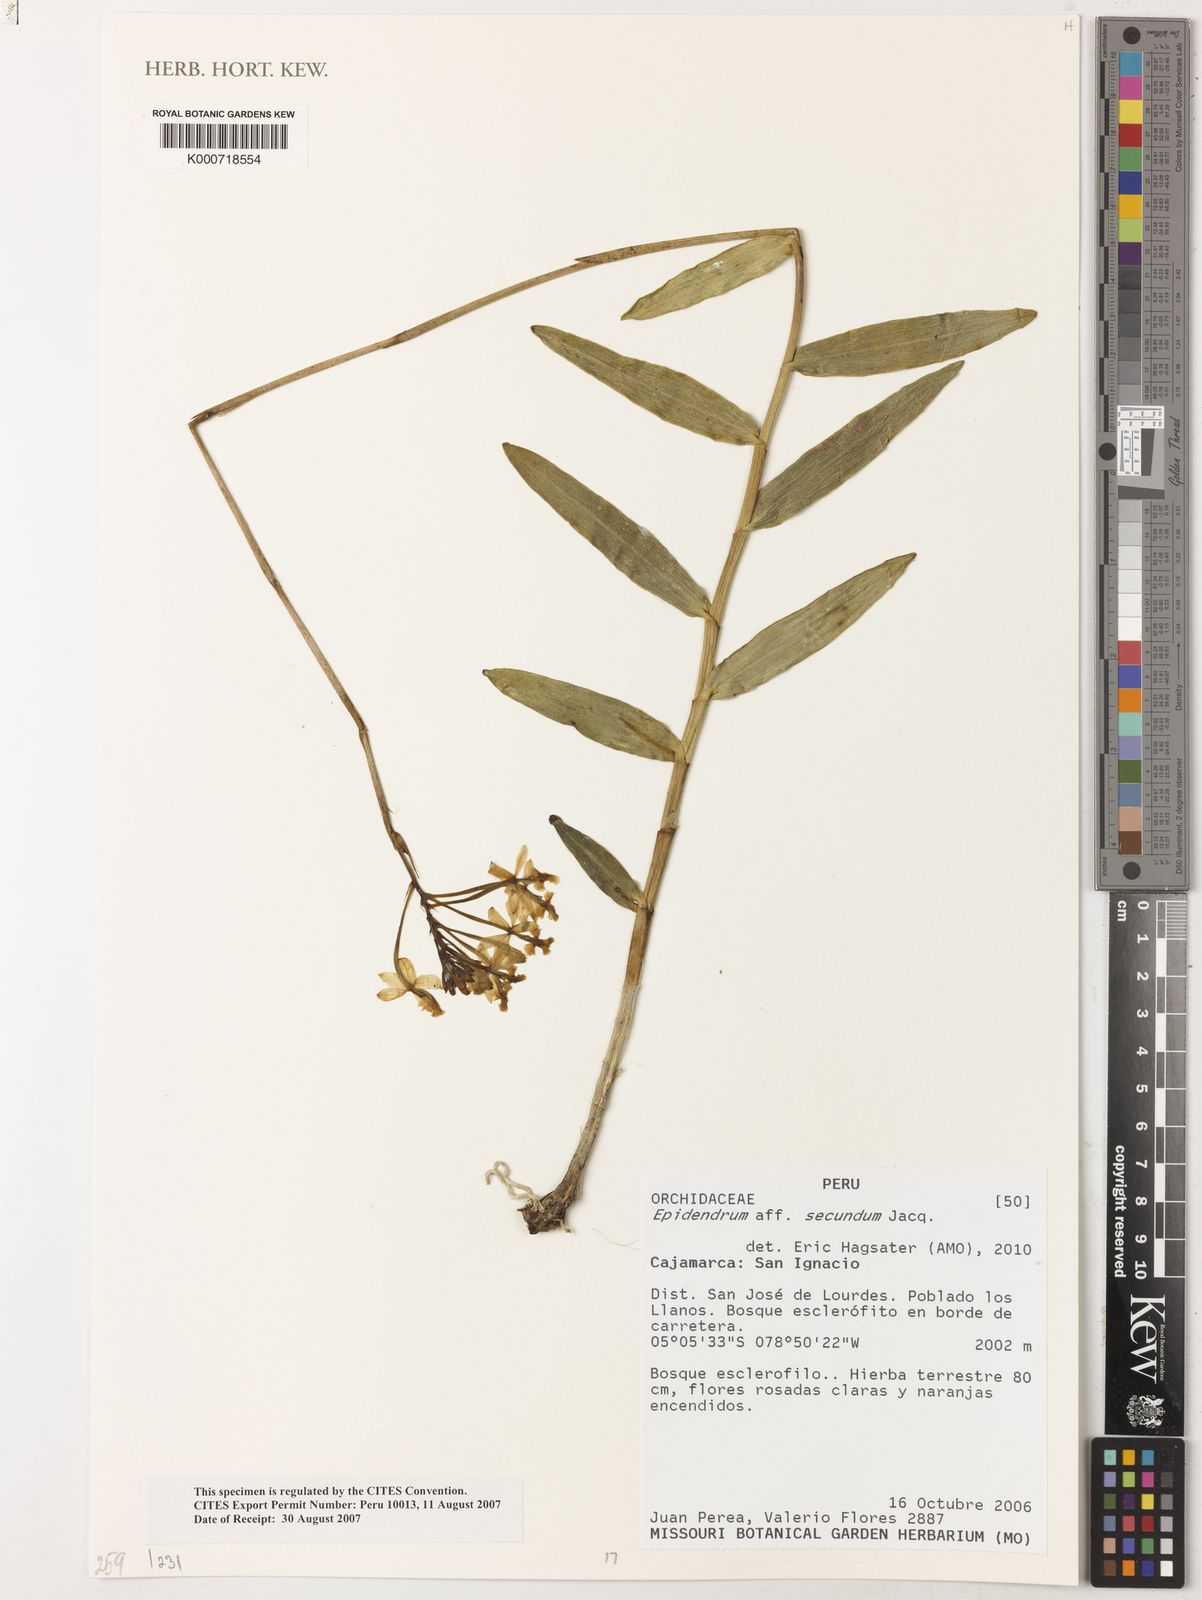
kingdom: Plantae
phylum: Tracheophyta
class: Liliopsida
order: Asparagales
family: Orchidaceae
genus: Epidendrum
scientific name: Epidendrum secundum
